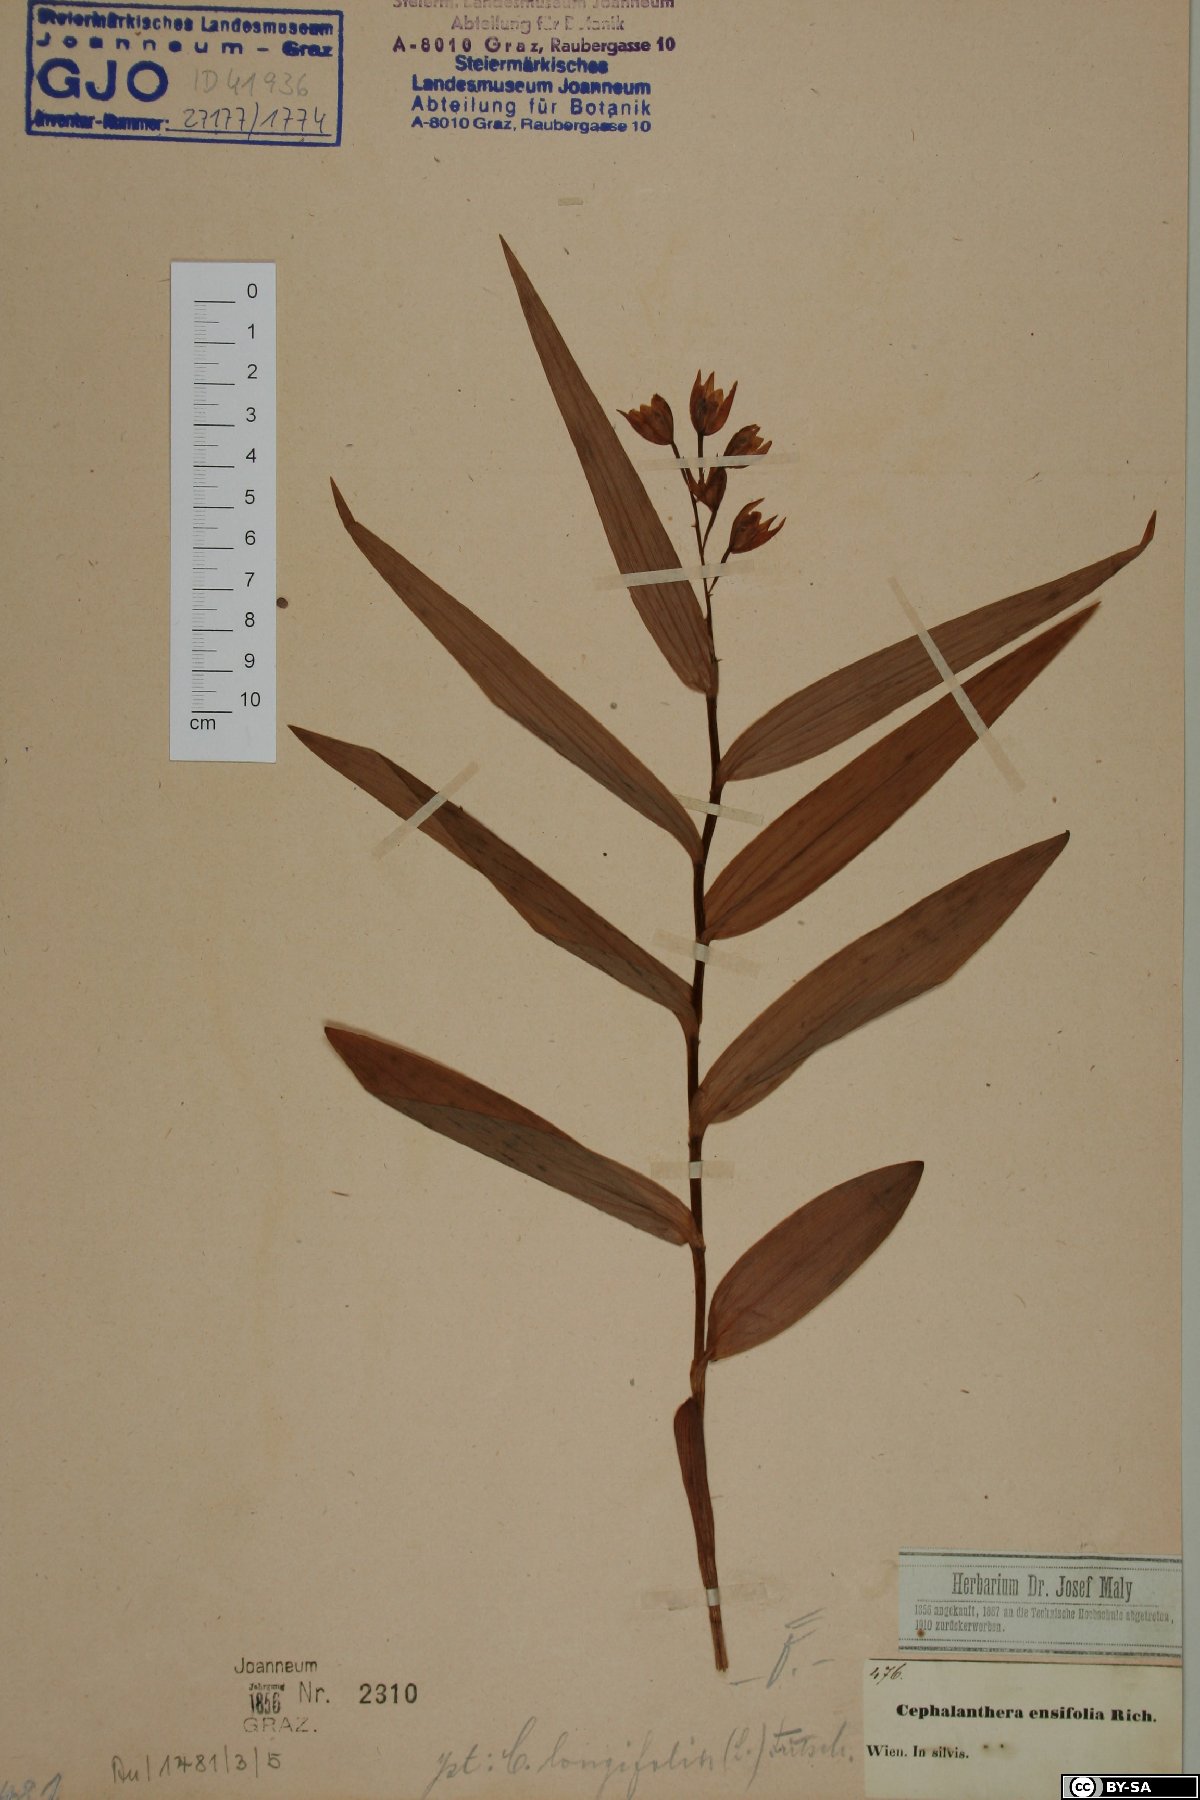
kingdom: Plantae
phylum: Tracheophyta
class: Liliopsida
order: Asparagales
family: Orchidaceae
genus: Cephalanthera
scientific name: Cephalanthera longifolia
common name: Narrow-leaved helleborine
